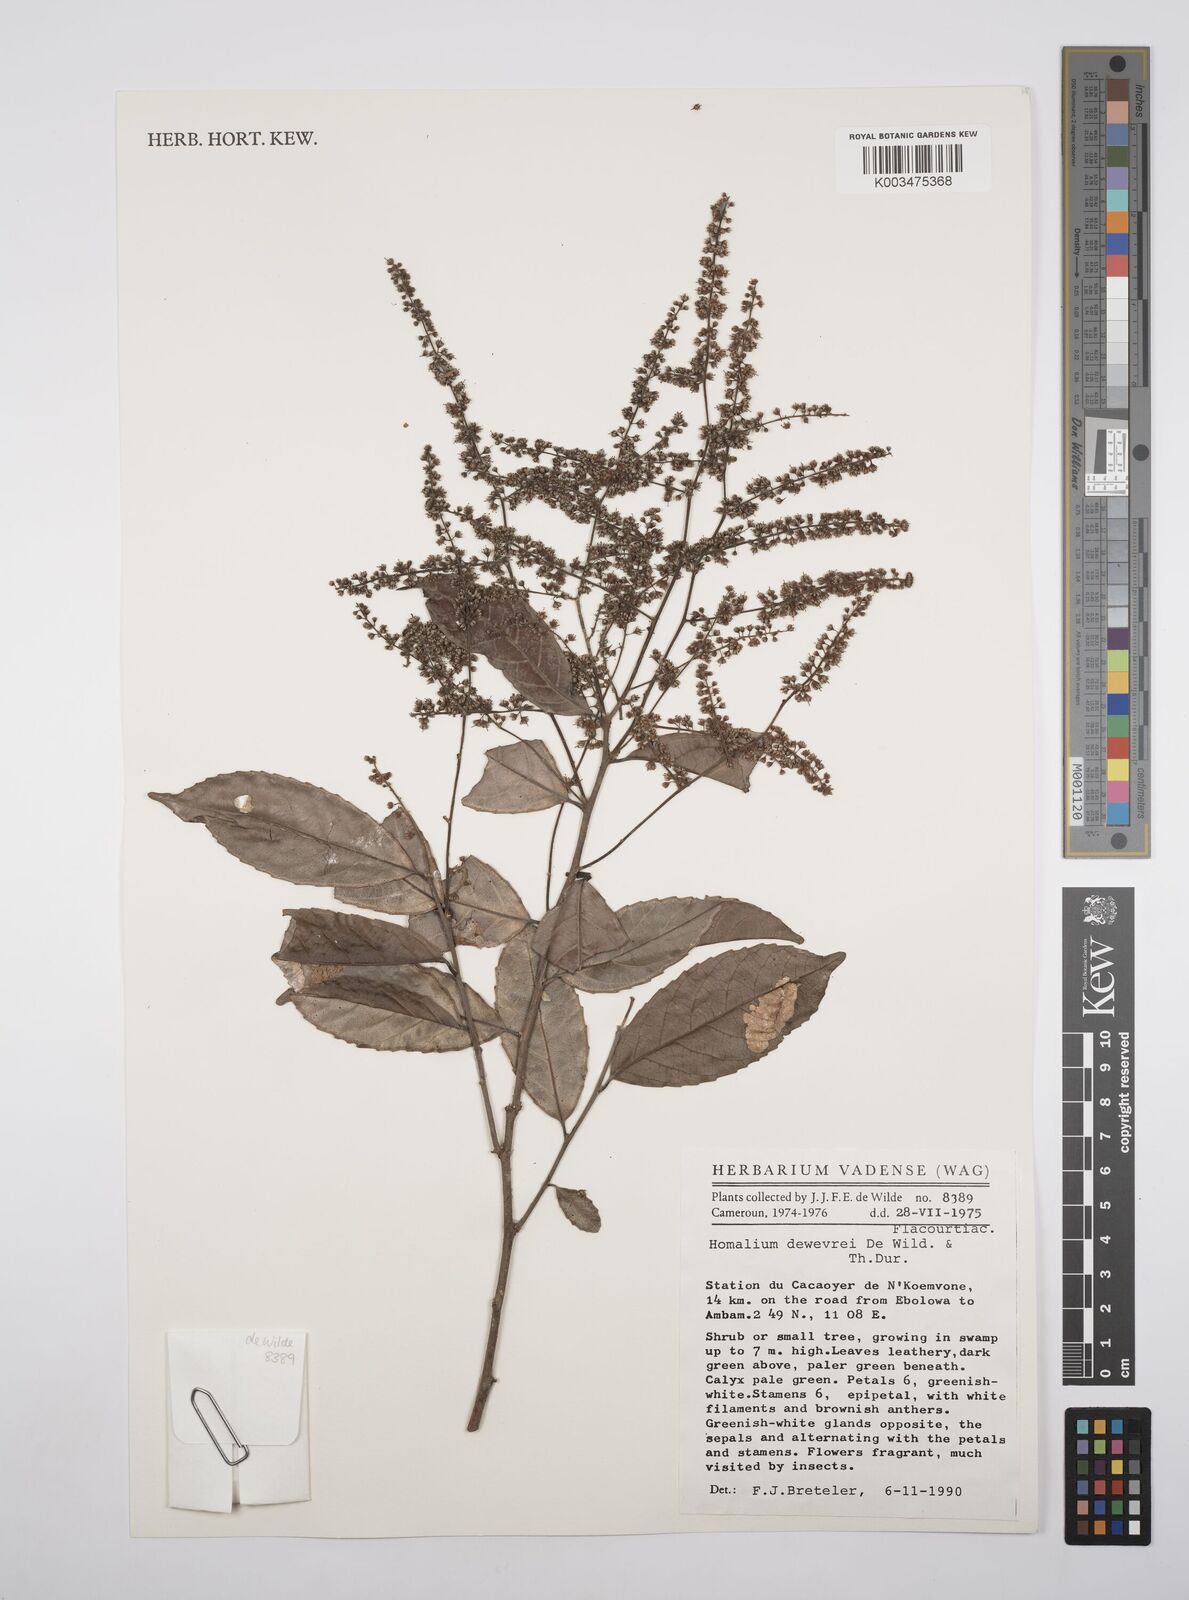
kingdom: Plantae
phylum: Tracheophyta
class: Magnoliopsida
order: Malpighiales
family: Salicaceae
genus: Homalium
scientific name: Homalium dewevrei
